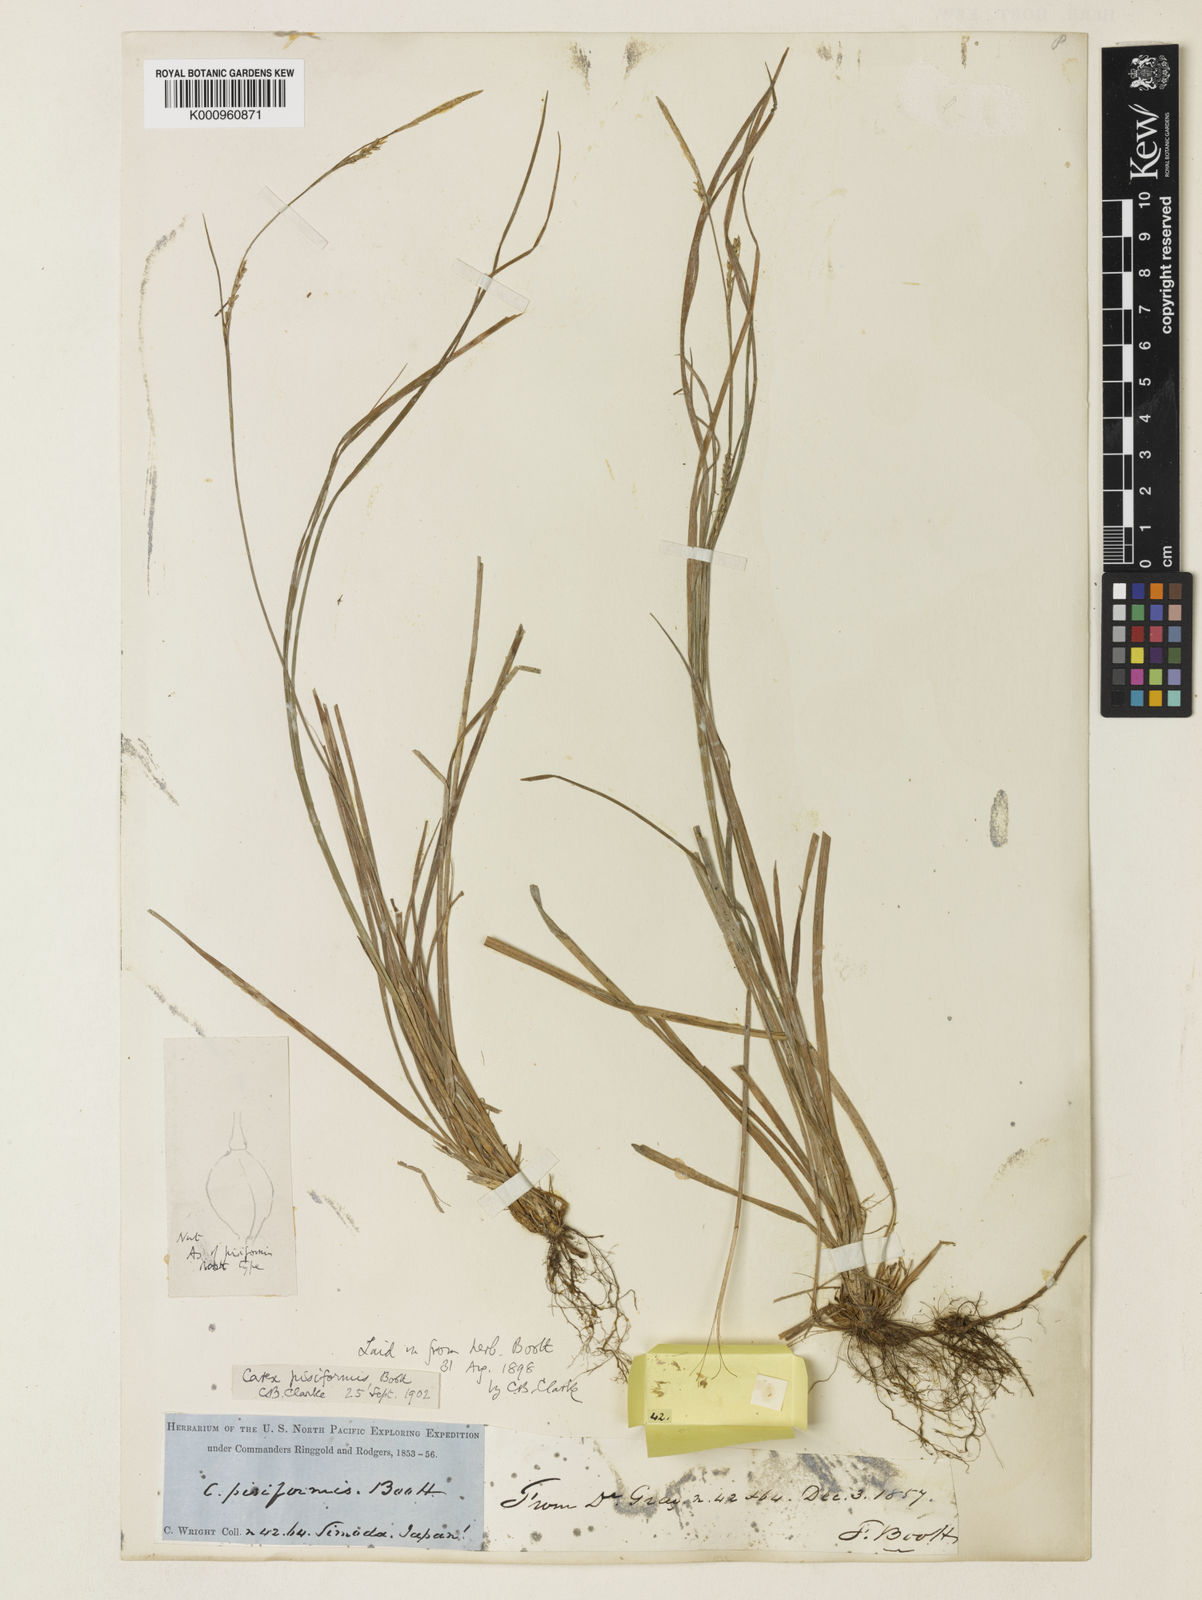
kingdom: Plantae
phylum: Tracheophyta
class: Liliopsida
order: Poales
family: Cyperaceae
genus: Carex
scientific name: Carex pisiformis
